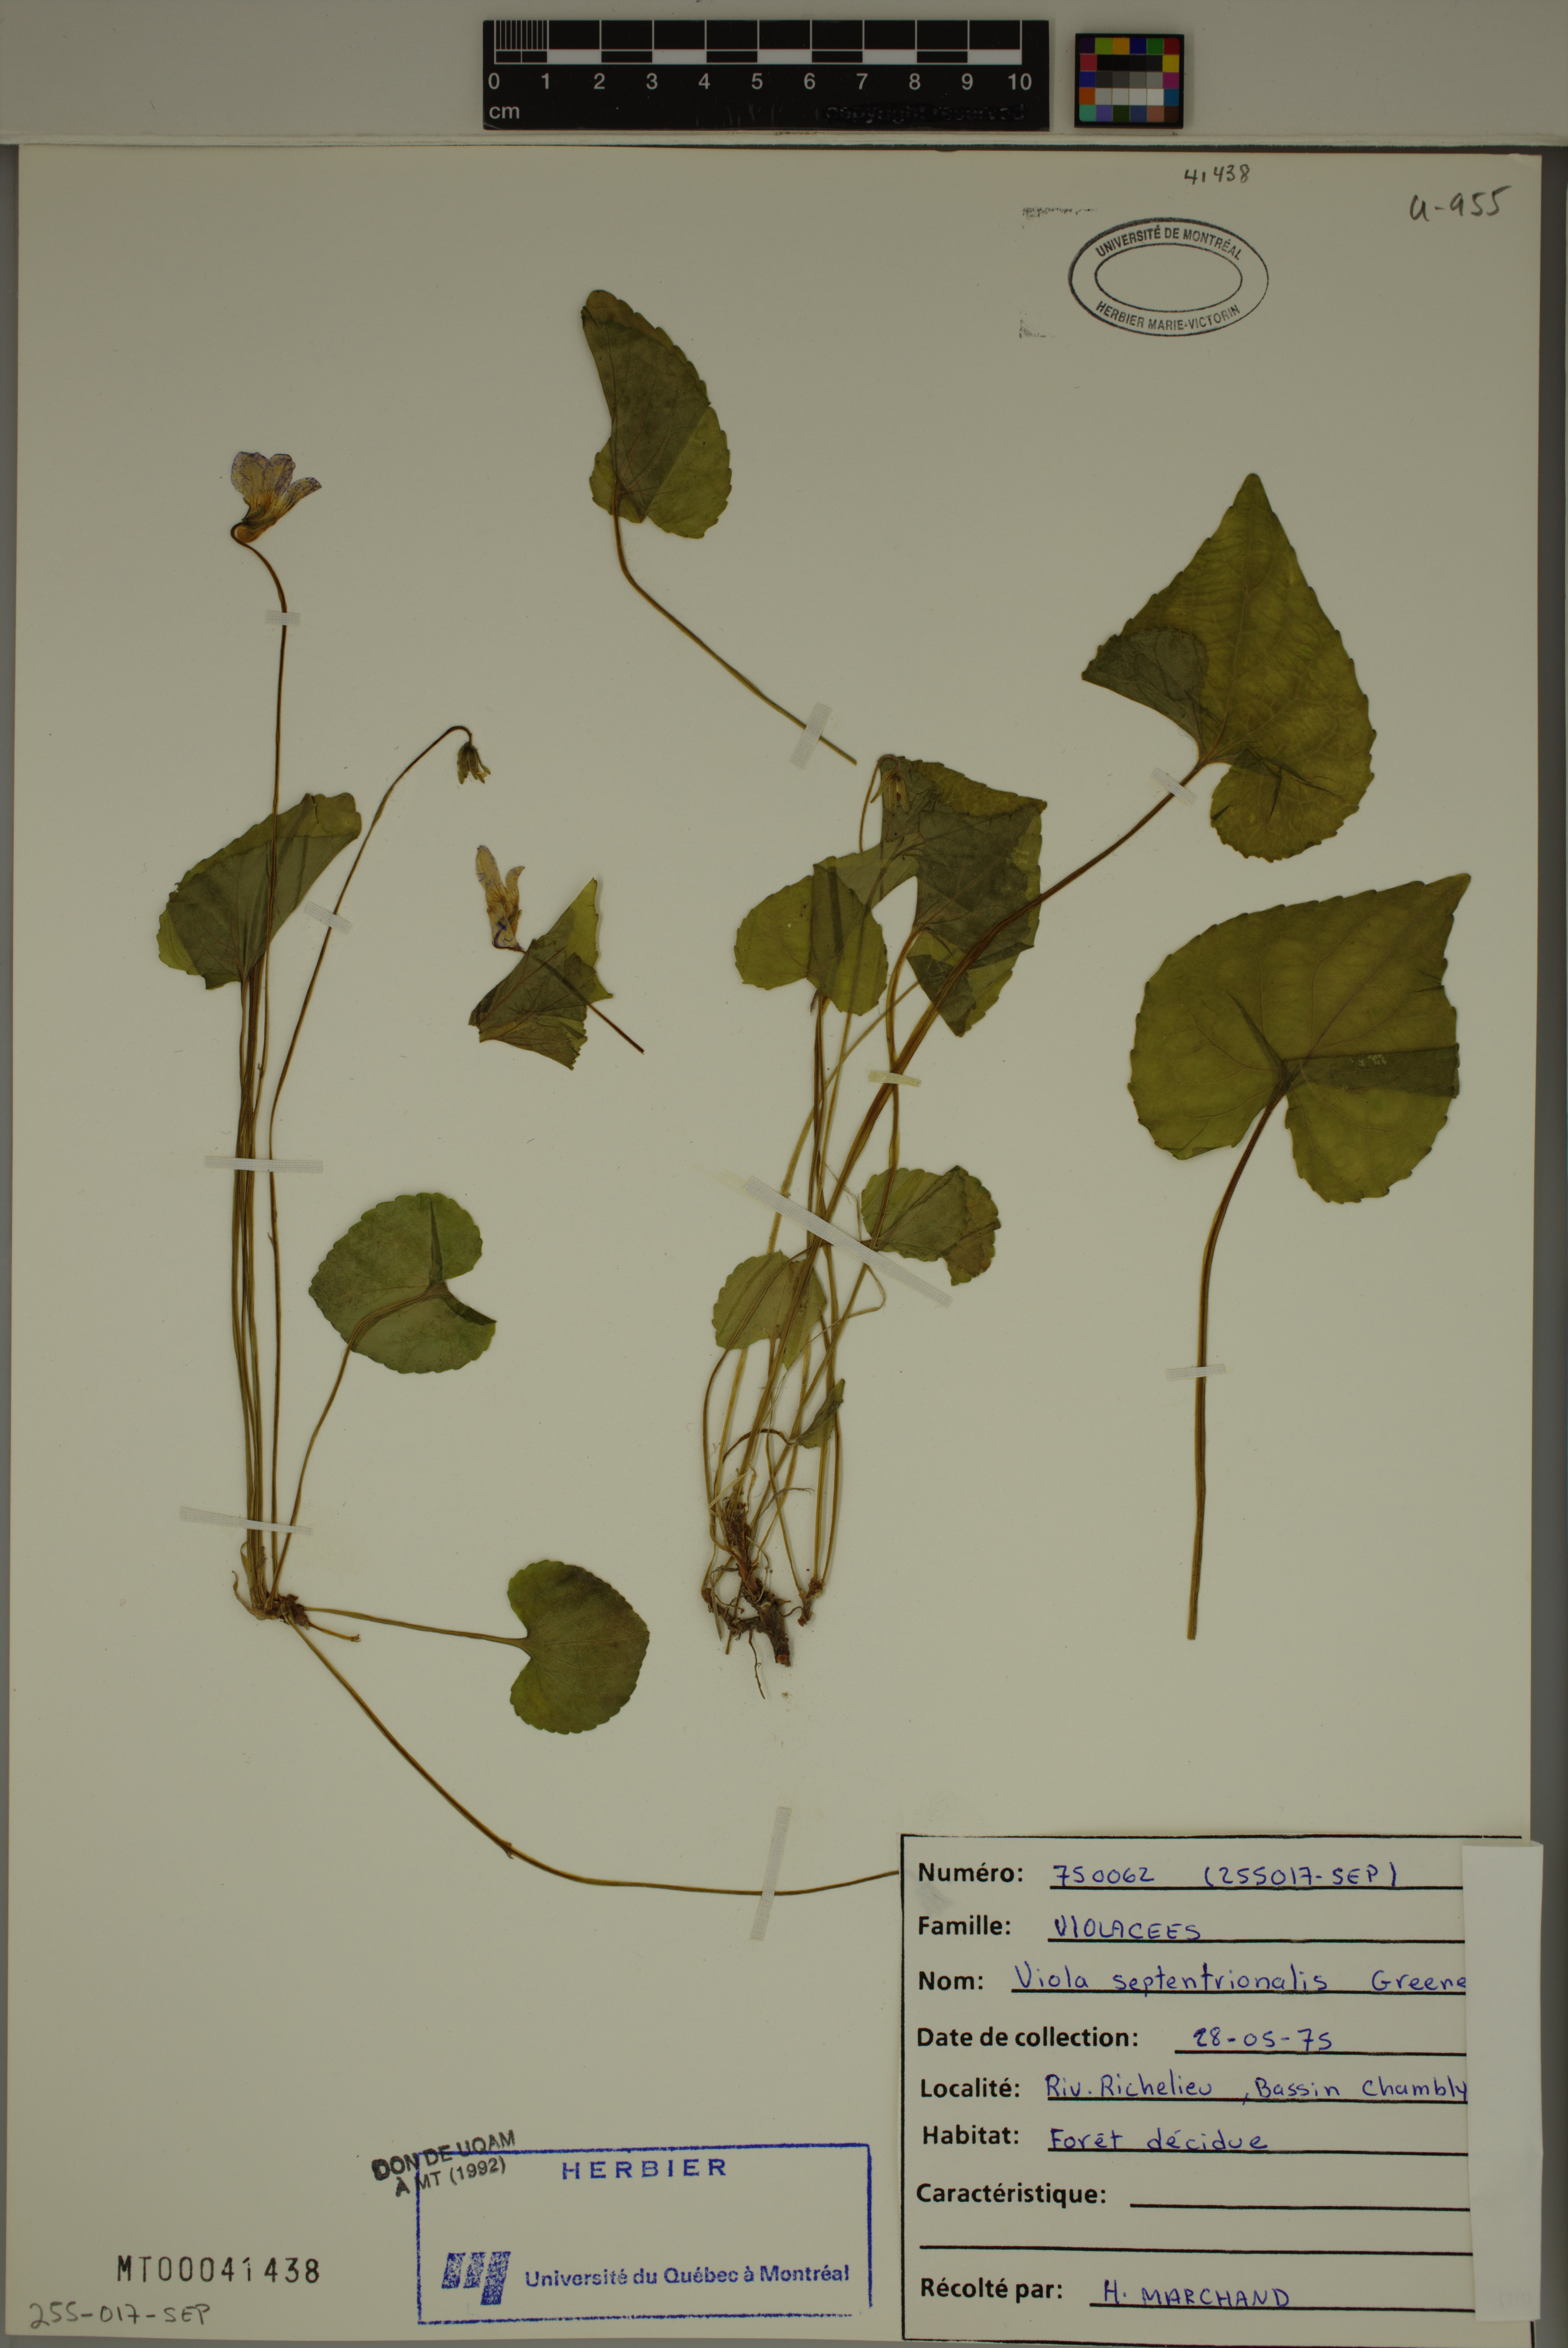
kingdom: Plantae
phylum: Tracheophyta
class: Magnoliopsida
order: Malpighiales
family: Violaceae
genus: Viola
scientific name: Viola sororia
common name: Dooryard violet
